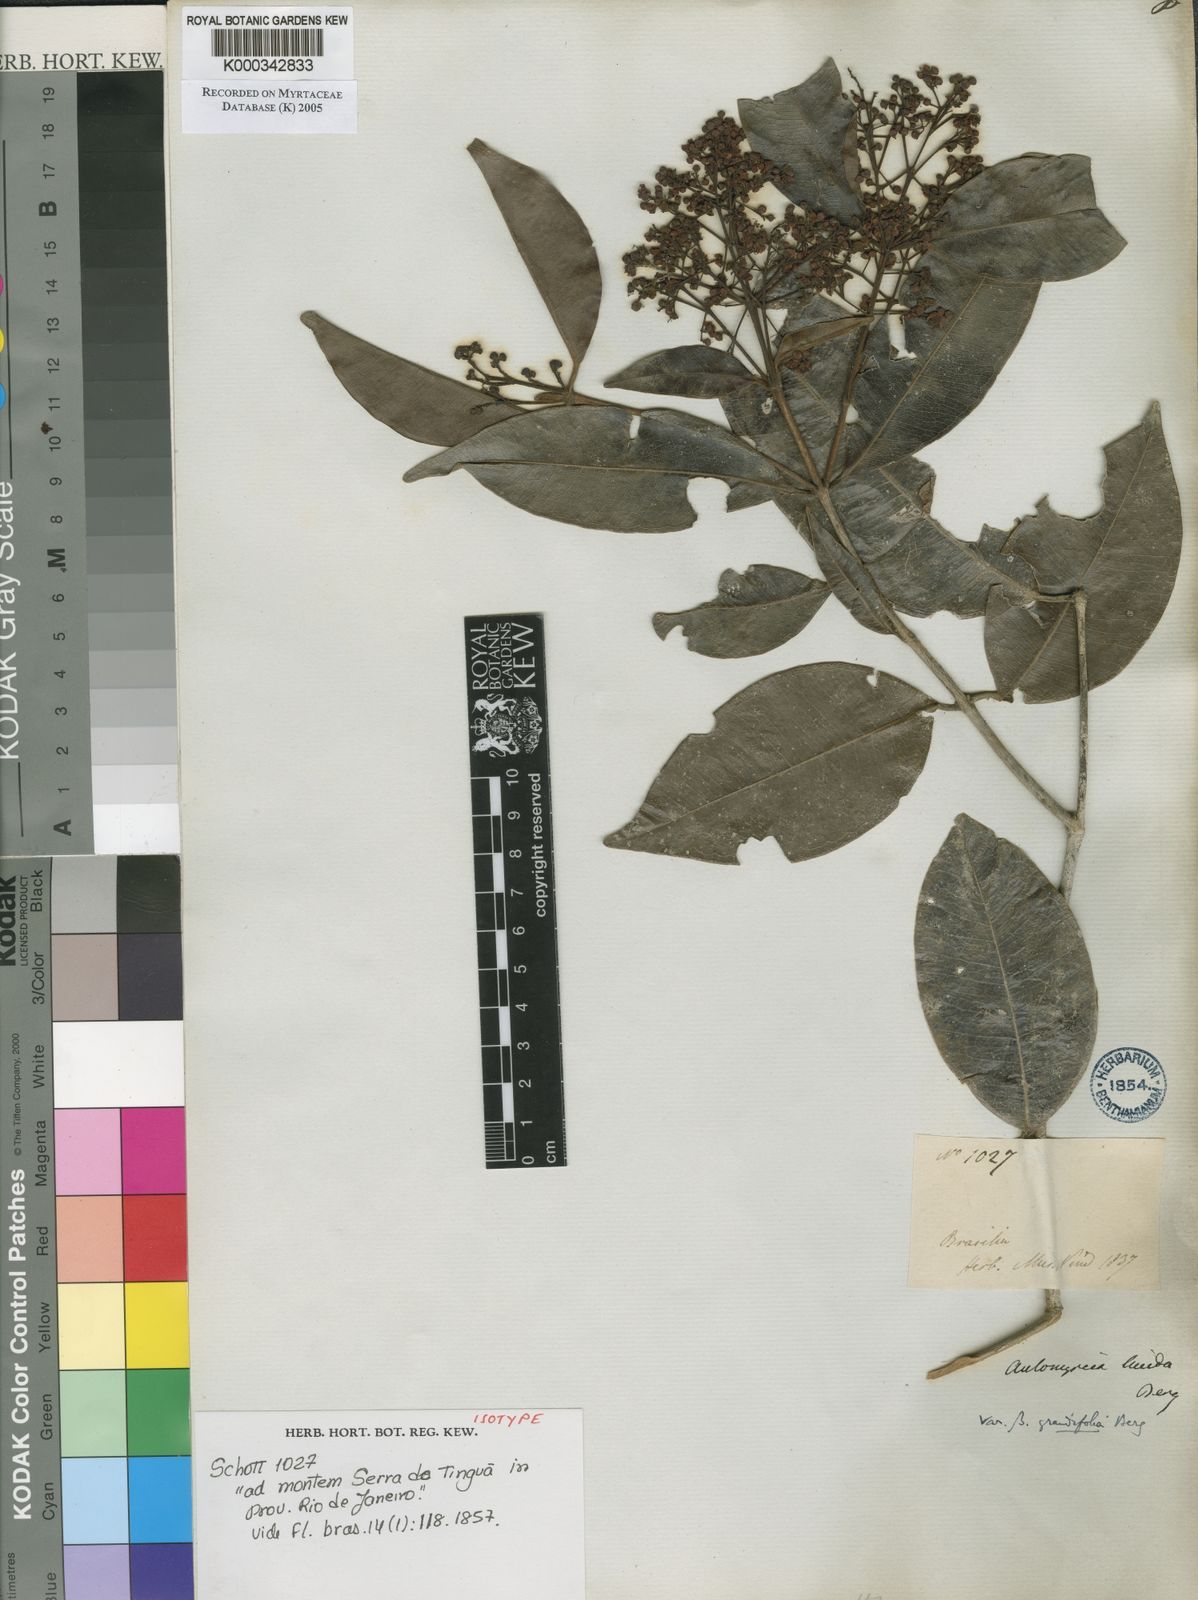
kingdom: Plantae
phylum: Tracheophyta
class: Magnoliopsida
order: Myrtales
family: Myrtaceae
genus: Myrcia
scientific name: Myrcia aethusa
